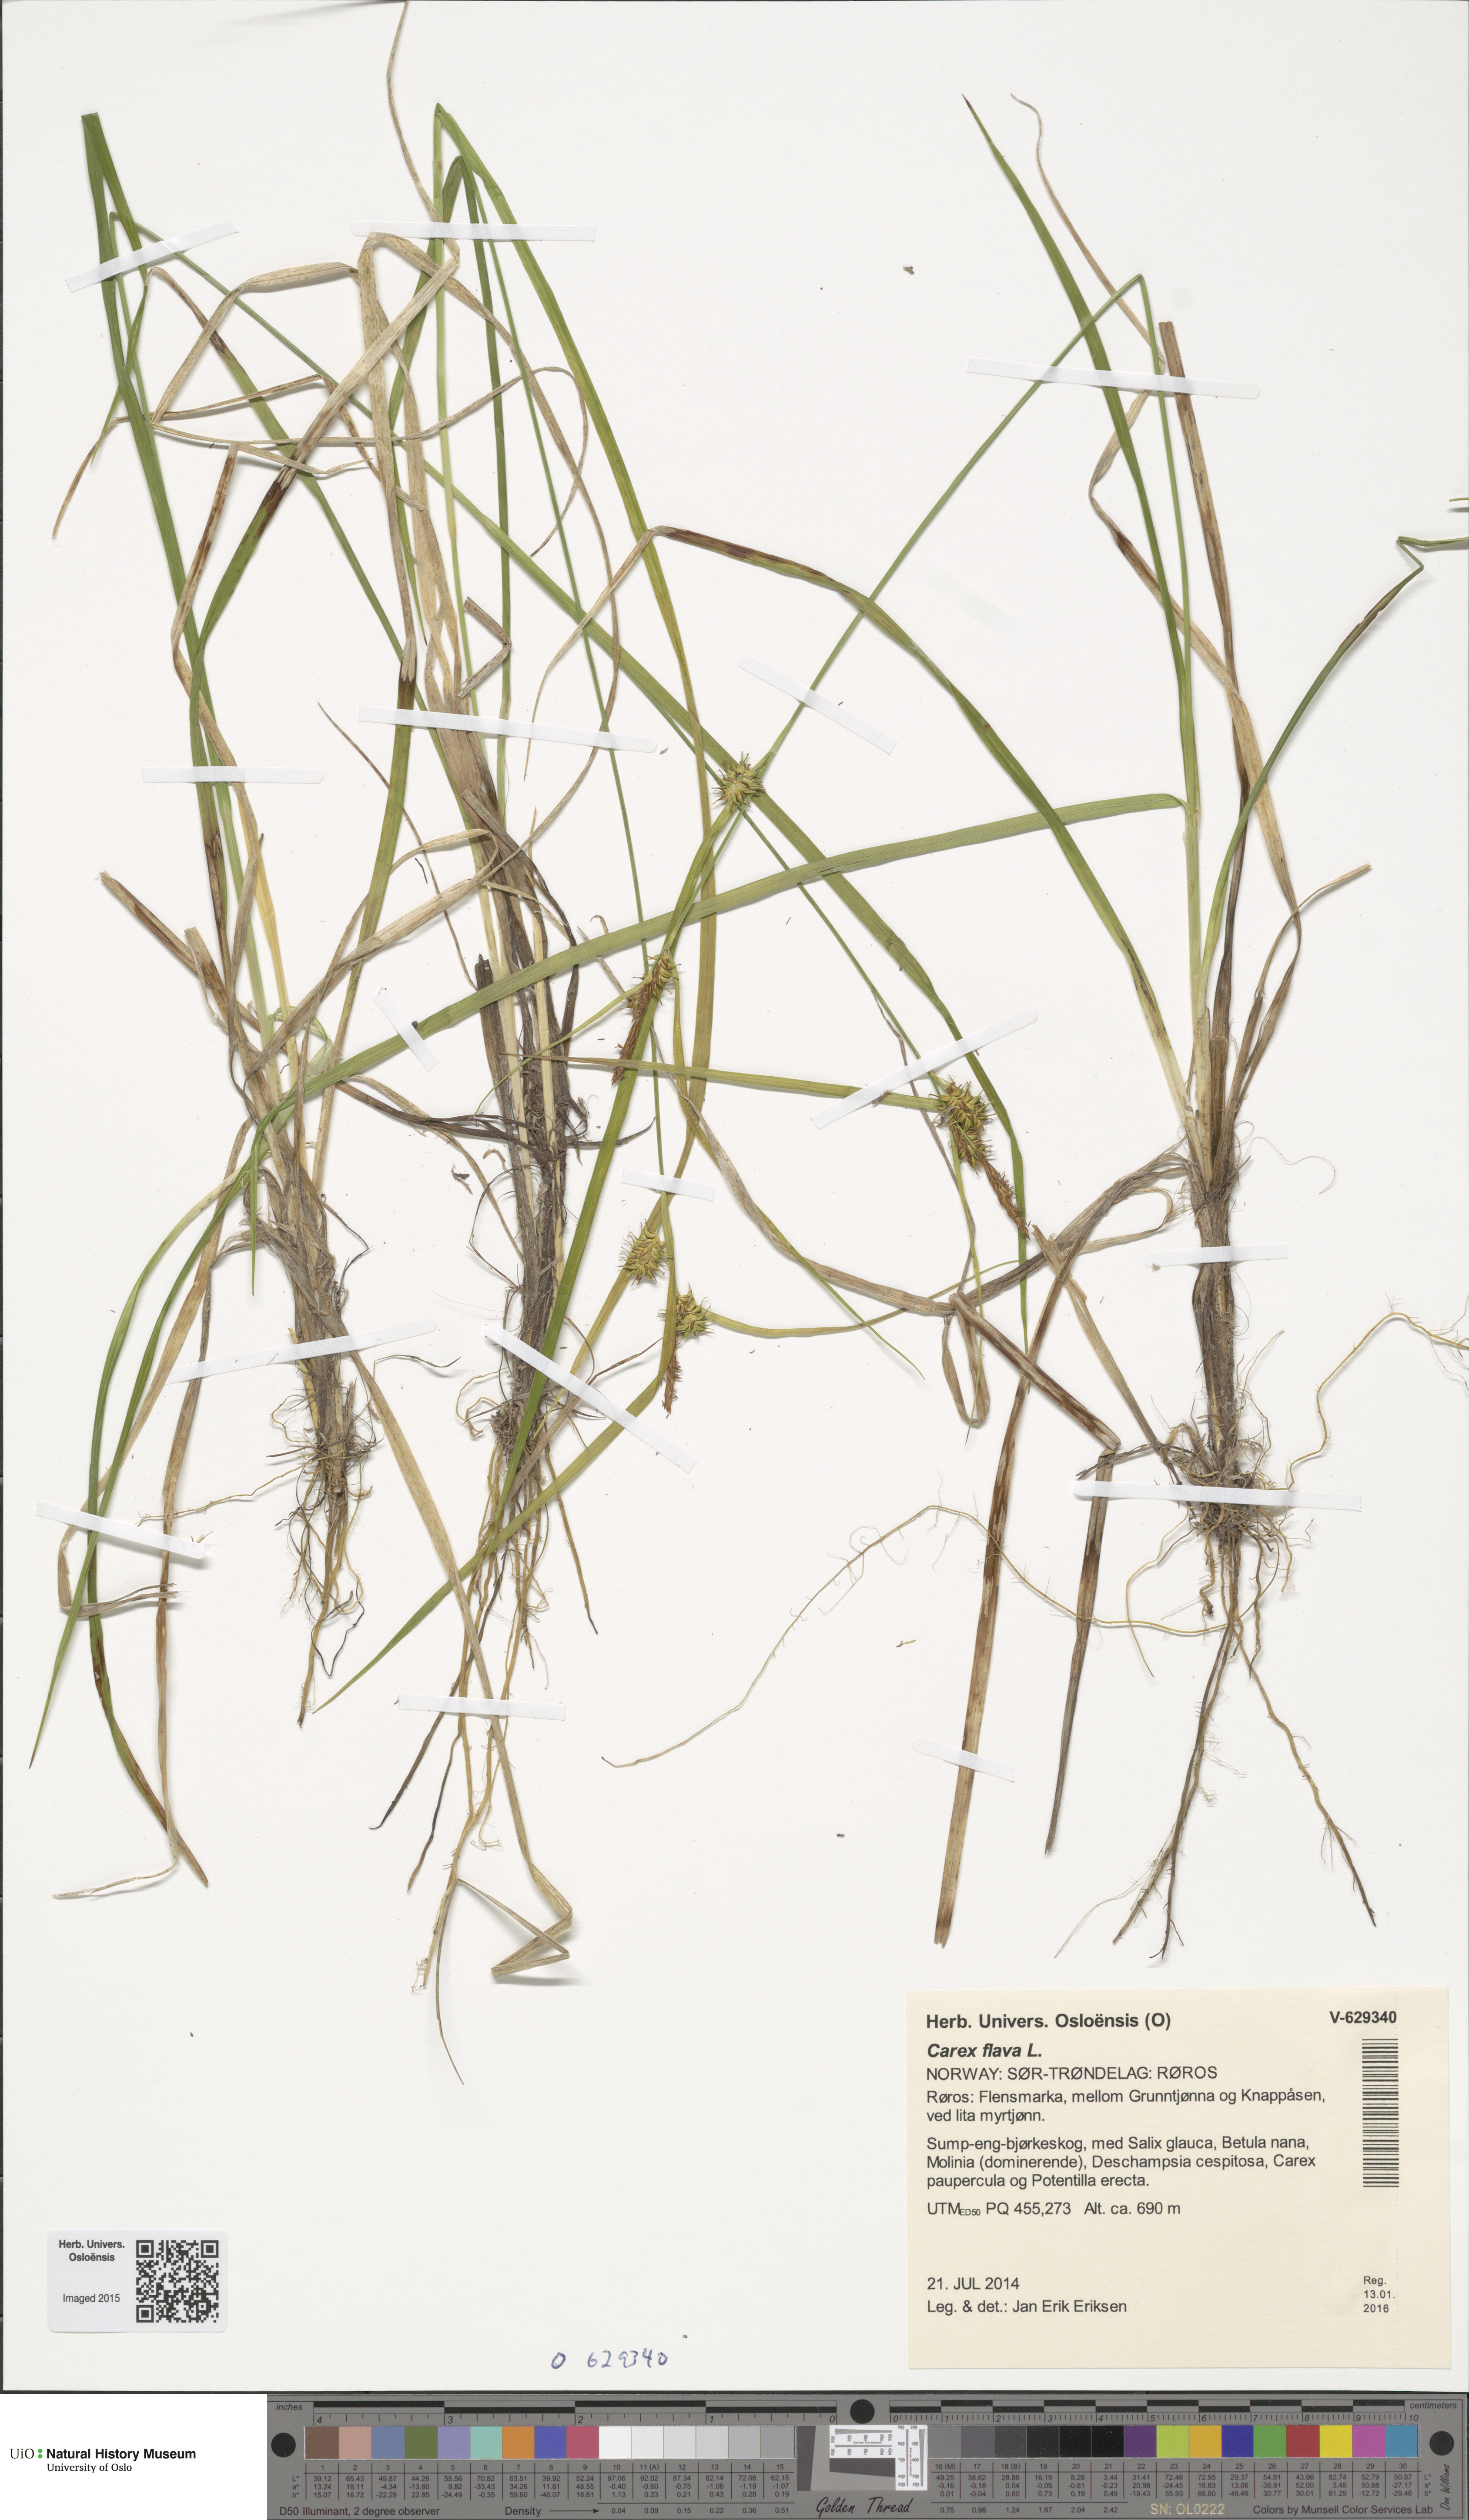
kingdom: Plantae
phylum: Tracheophyta
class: Liliopsida
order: Poales
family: Cyperaceae
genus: Carex
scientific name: Carex flava
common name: Large yellow-sedge
